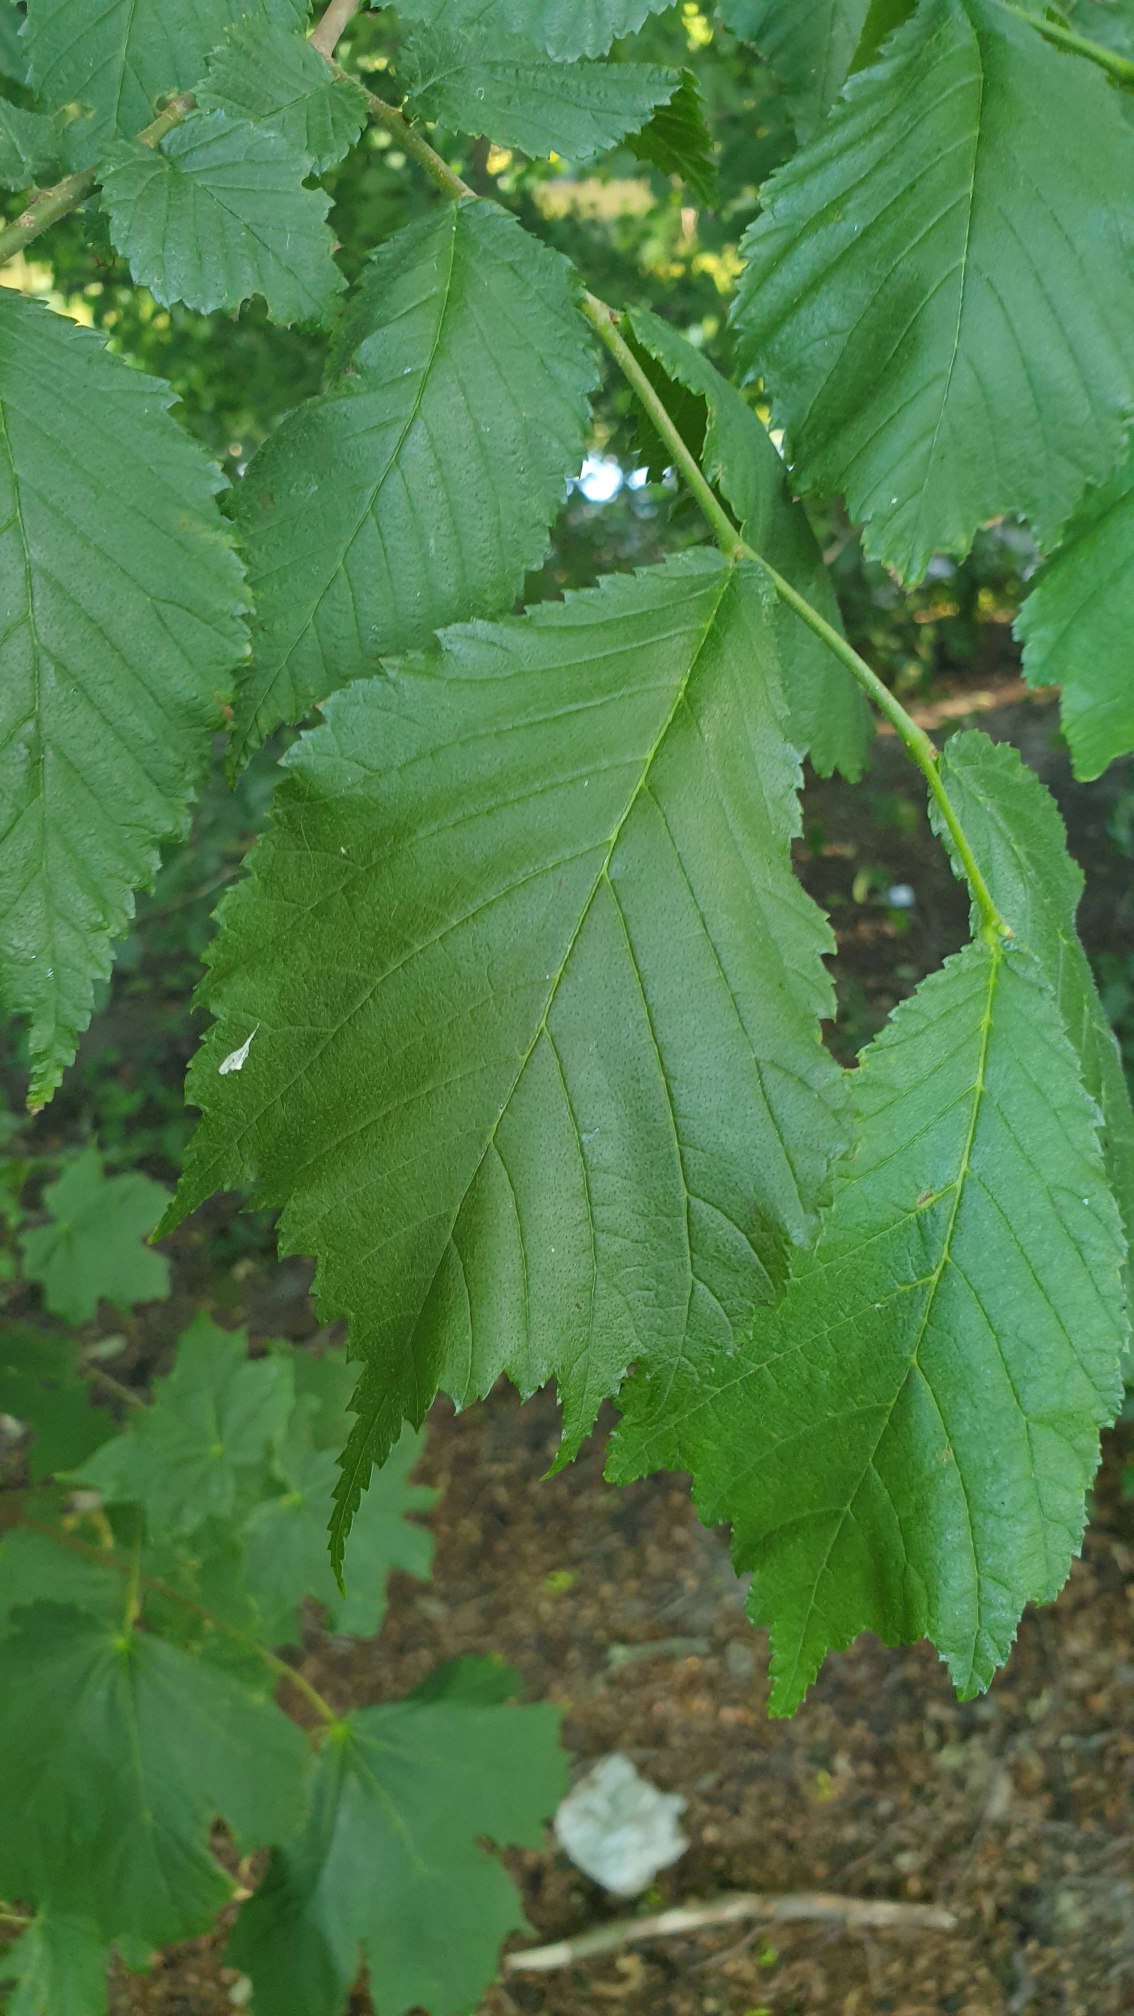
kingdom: Plantae
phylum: Tracheophyta
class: Magnoliopsida
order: Rosales
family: Ulmaceae
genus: Ulmus
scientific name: Ulmus glabra
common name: Skov-elm/storbladet elm
